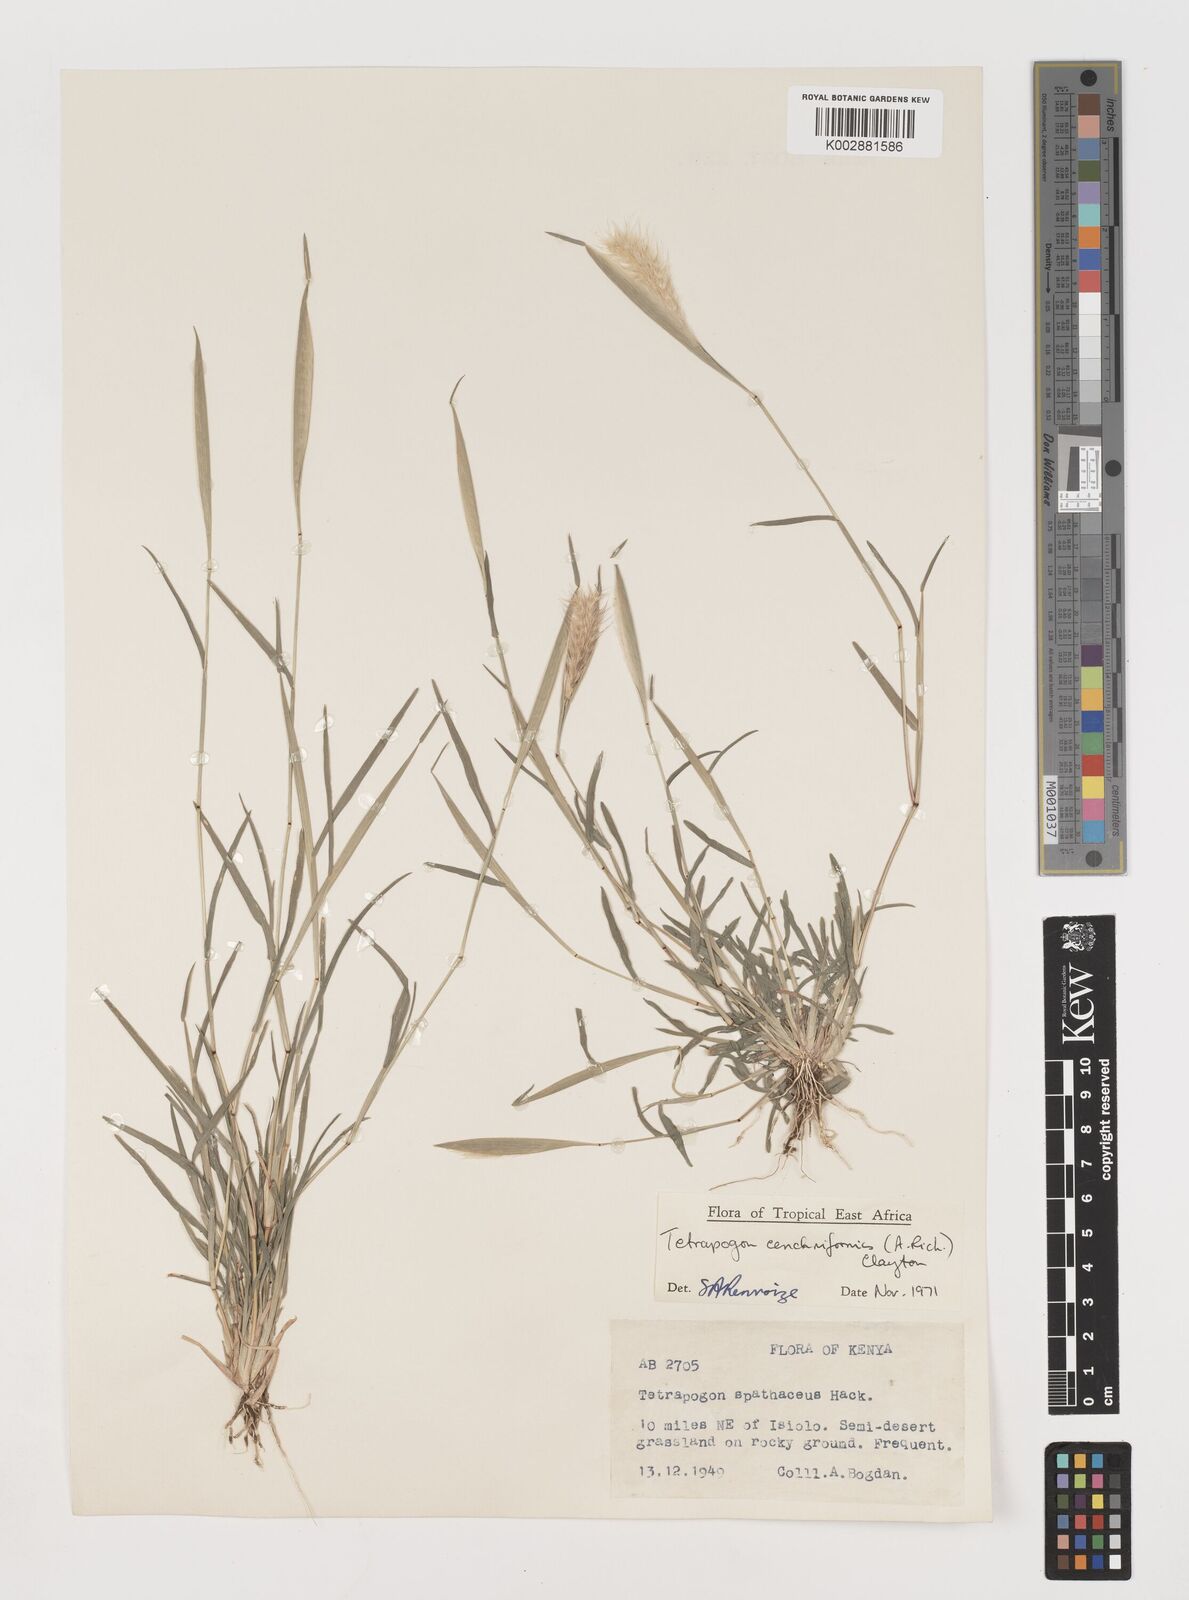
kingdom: Plantae
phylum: Tracheophyta
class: Liliopsida
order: Poales
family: Poaceae
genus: Tetrapogon
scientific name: Tetrapogon cenchriformis
